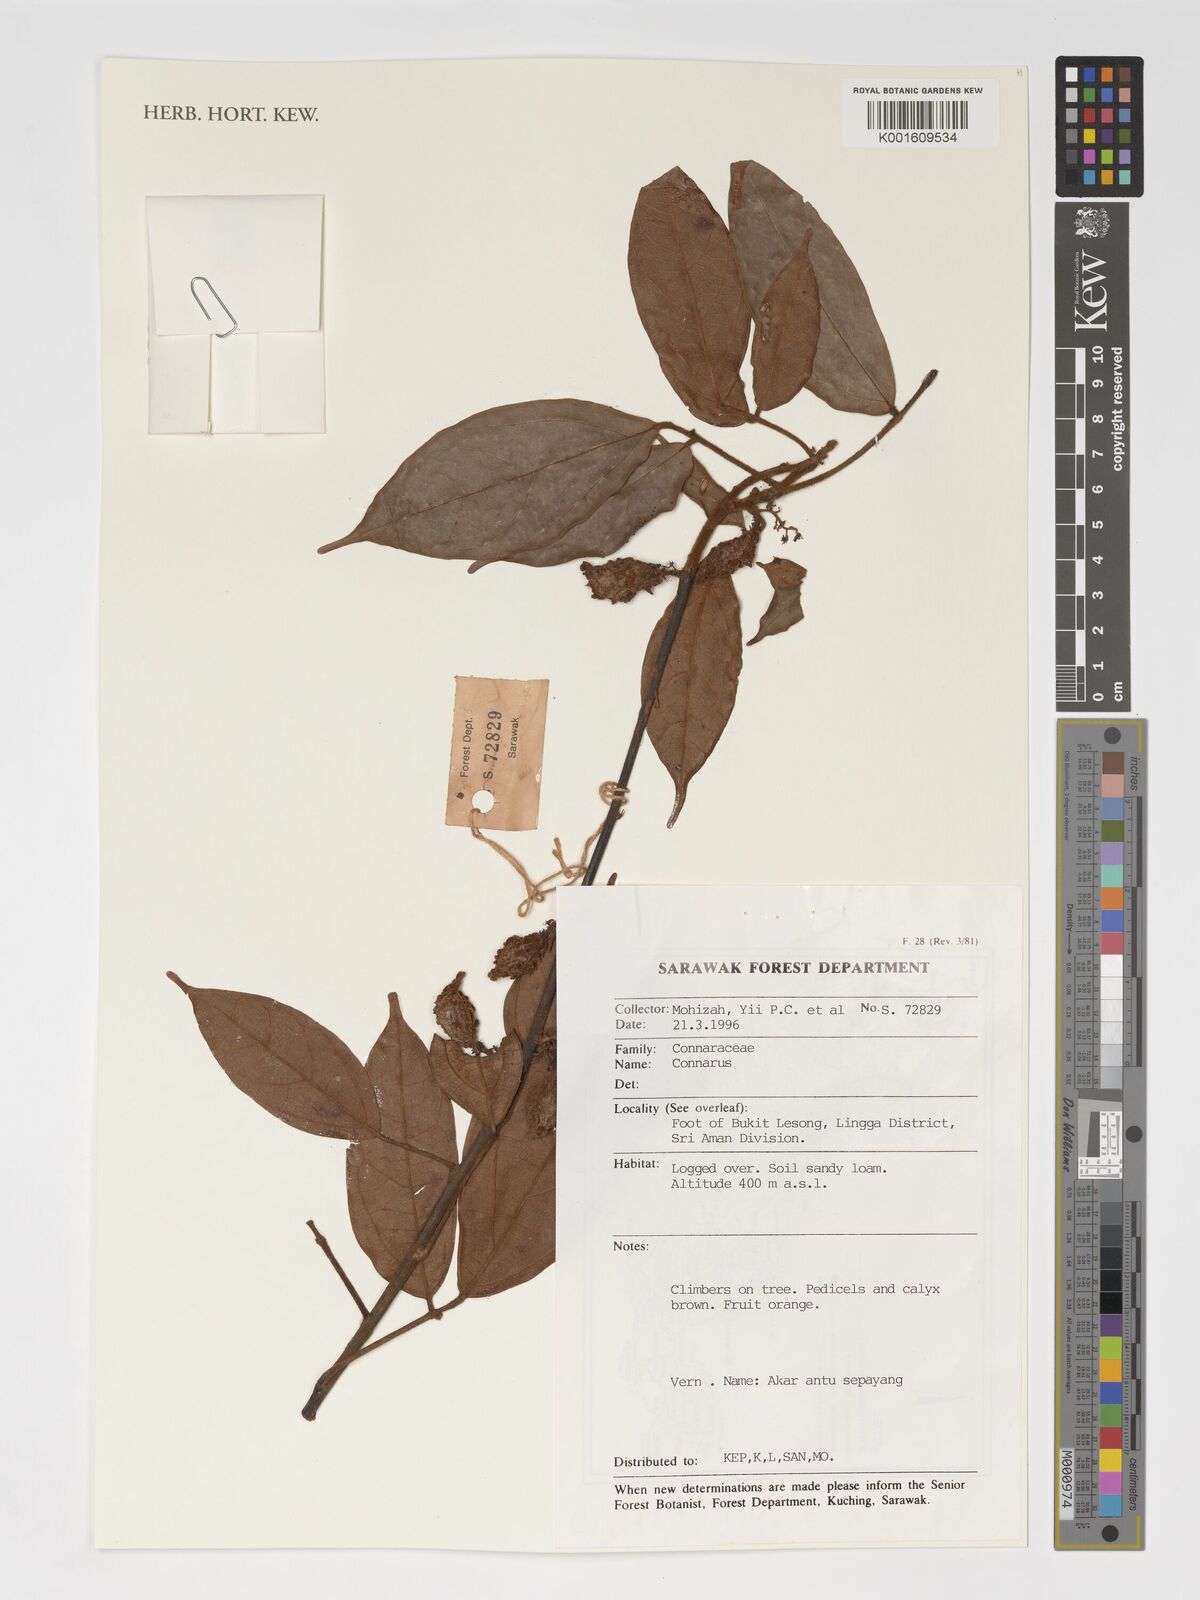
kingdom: Plantae
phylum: Tracheophyta
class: Magnoliopsida
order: Oxalidales
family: Connaraceae
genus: Connarus
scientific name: Connarus
